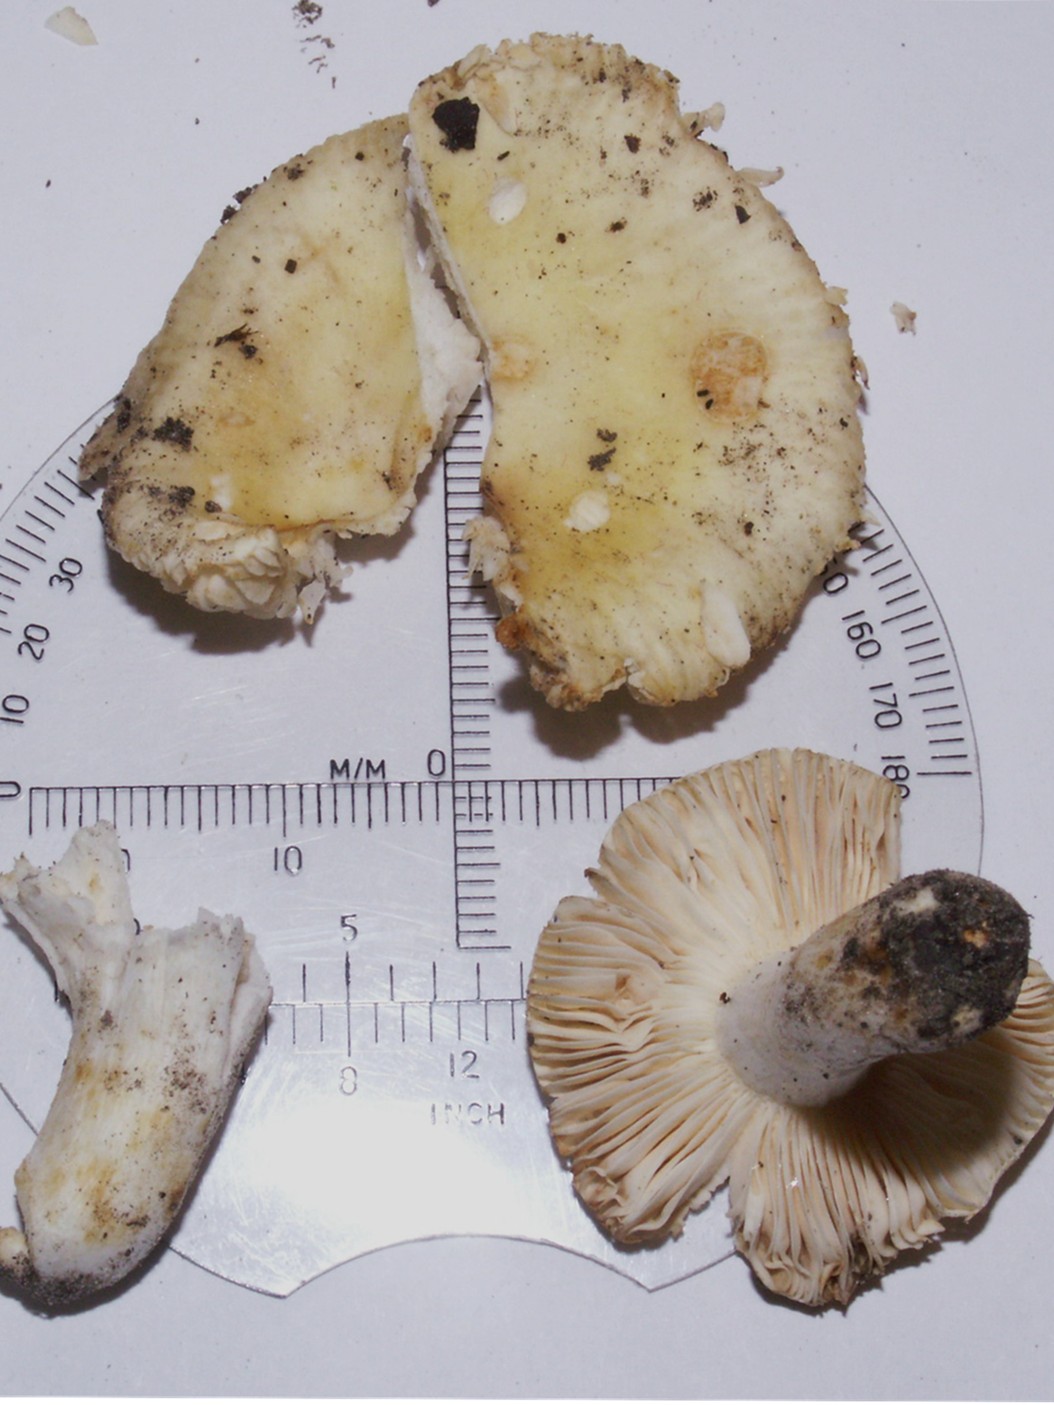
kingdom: Fungi
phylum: Basidiomycota
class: Agaricomycetes
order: Russulales
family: Russulaceae
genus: Russula
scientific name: Russula solaris
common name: sol-skørhat
